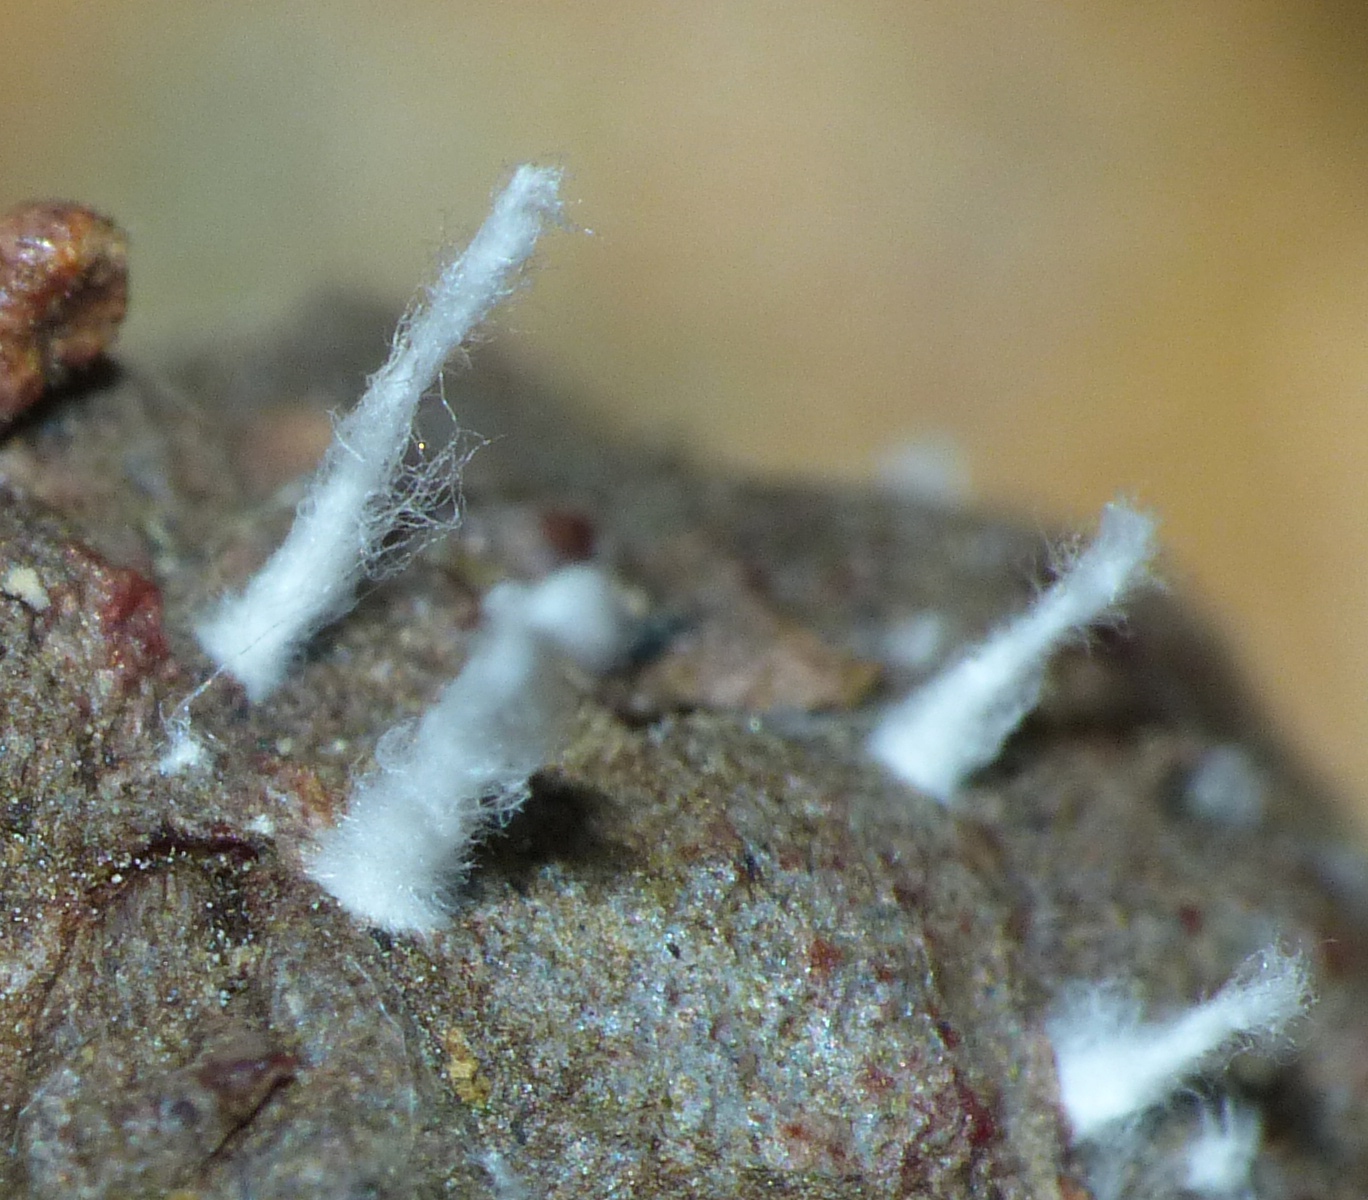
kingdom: Fungi
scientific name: Fungi
